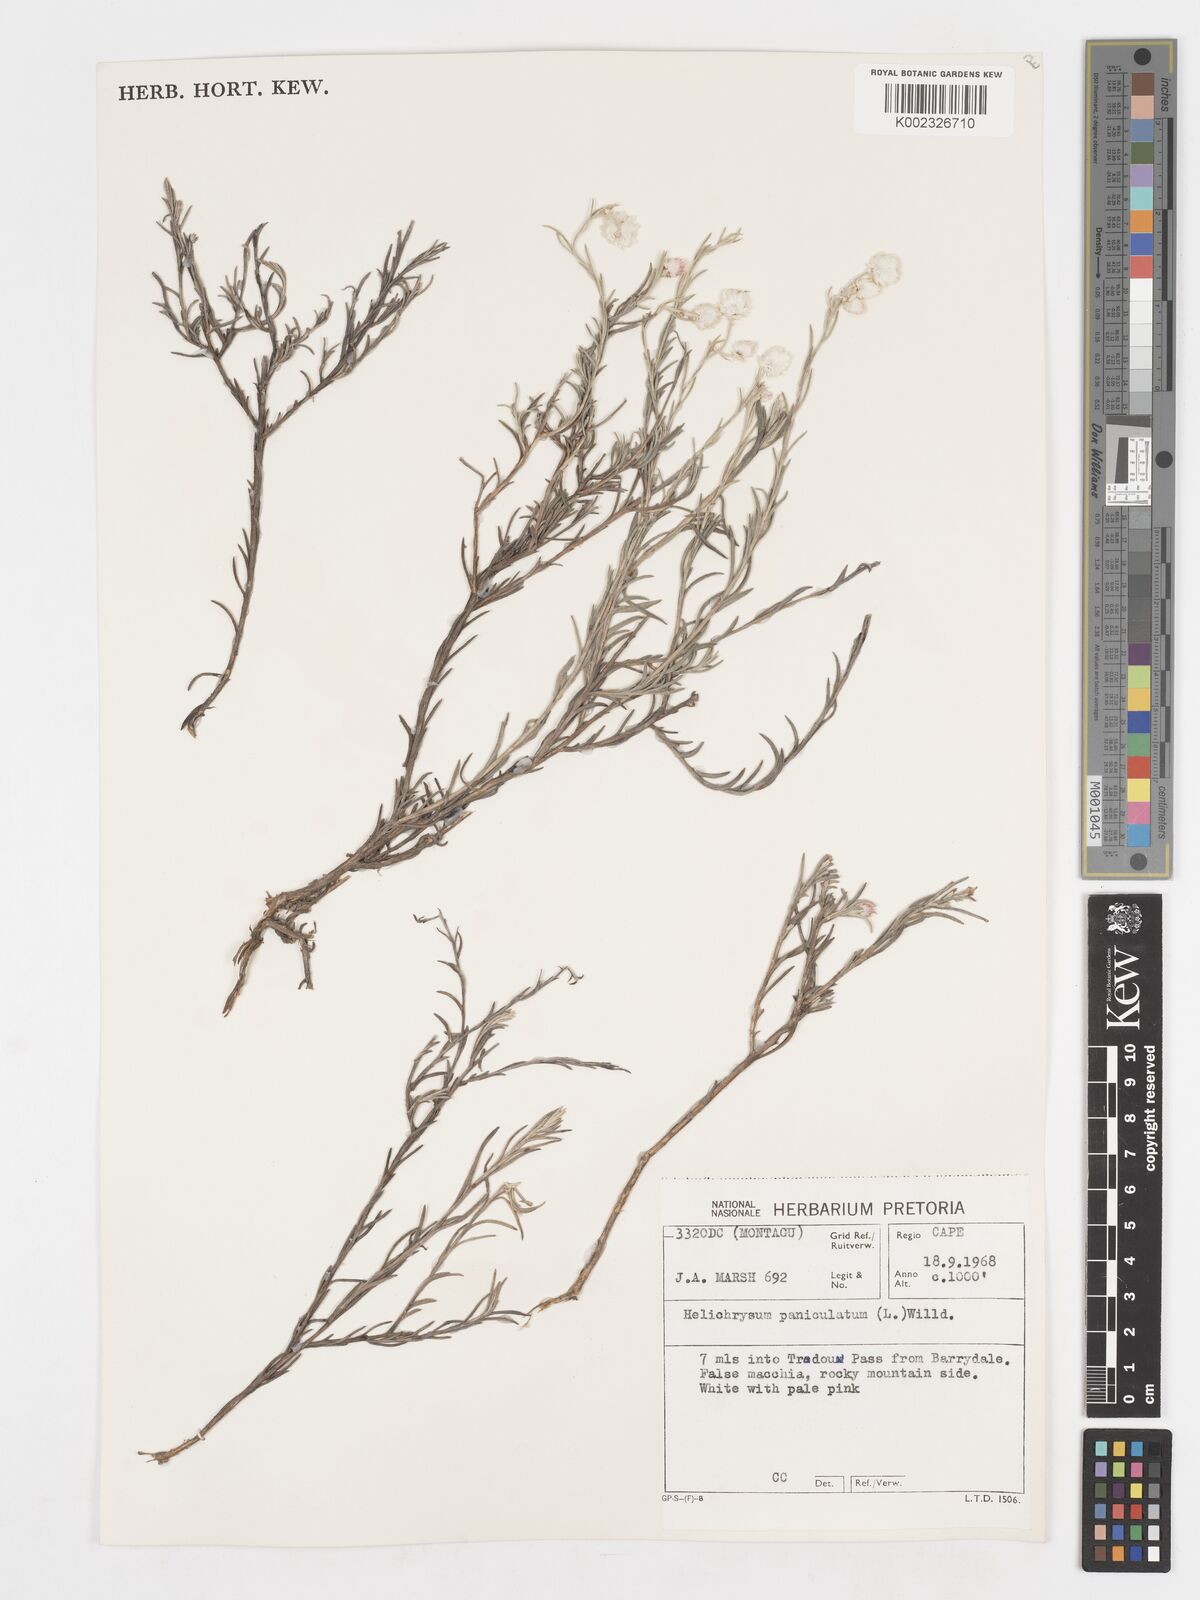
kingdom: Plantae
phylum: Tracheophyta
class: Magnoliopsida
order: Asterales
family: Asteraceae
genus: Achyranthemum
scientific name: Achyranthemum paniculatum
